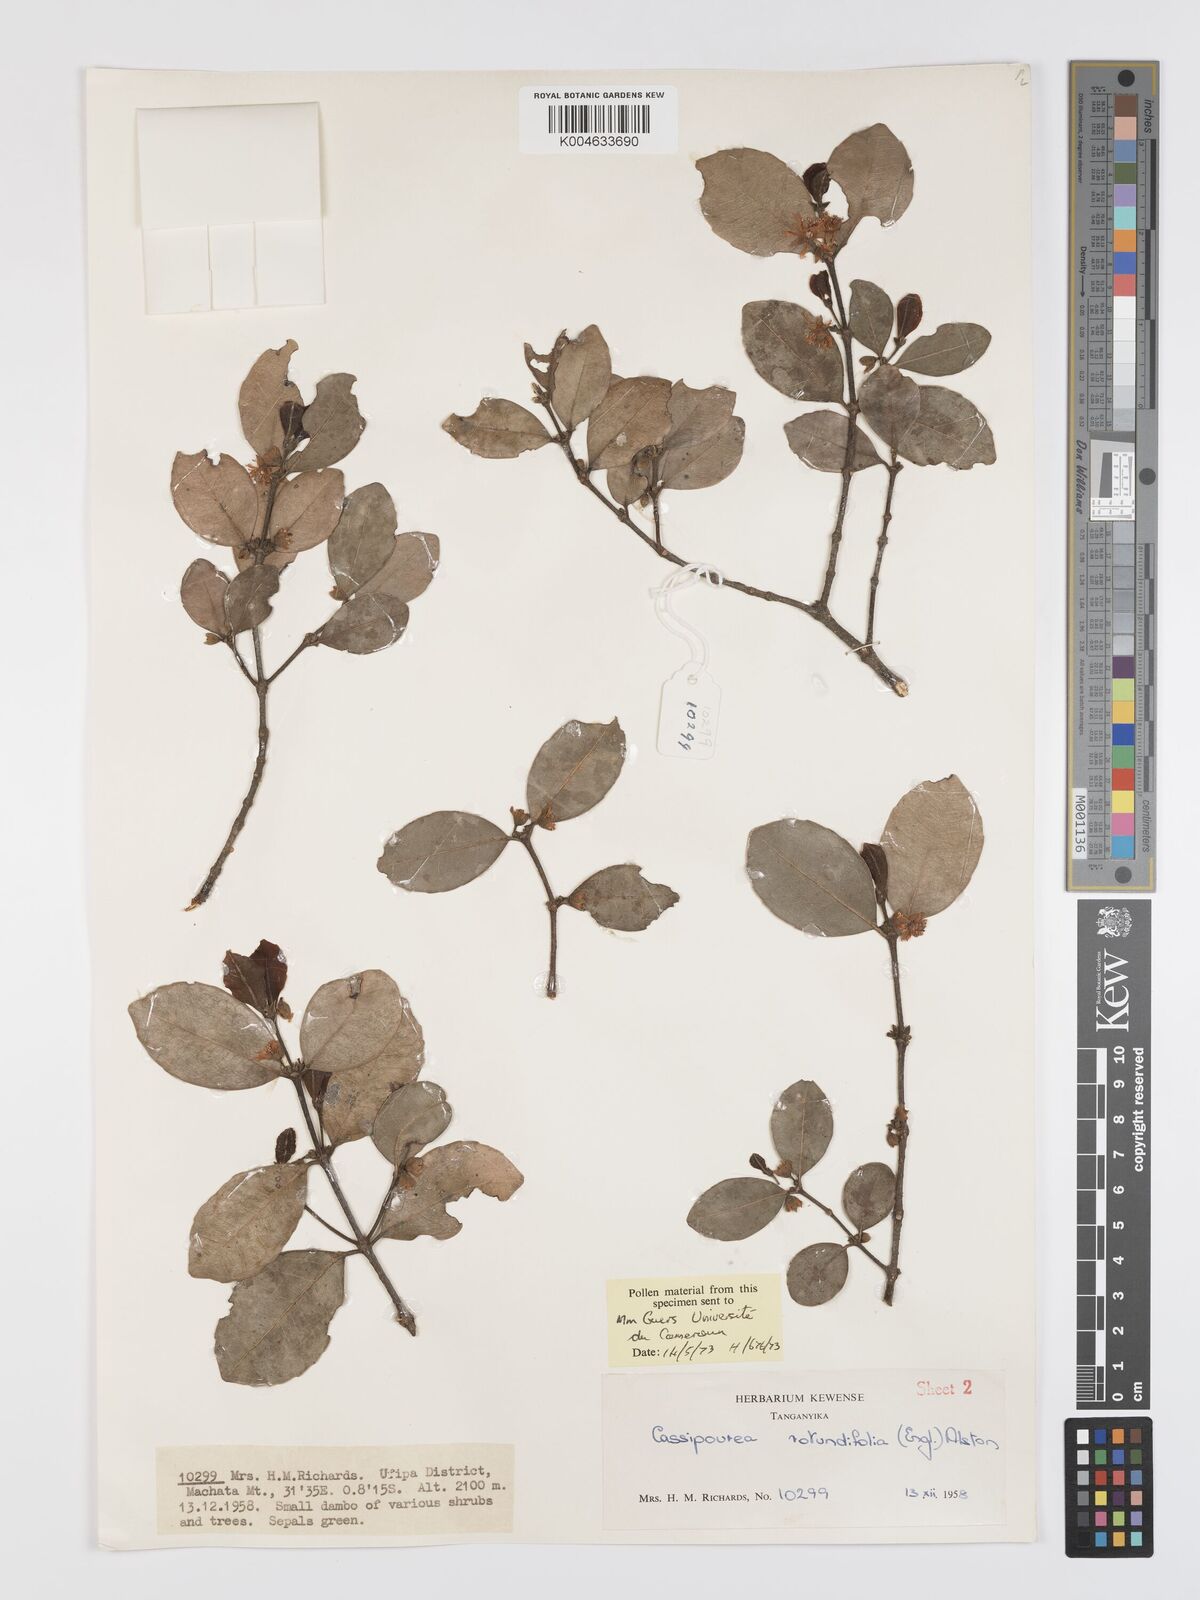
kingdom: Plantae
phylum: Tracheophyta
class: Magnoliopsida
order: Malpighiales
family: Rhizophoraceae
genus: Cassipourea
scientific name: Cassipourea rotundifolia
